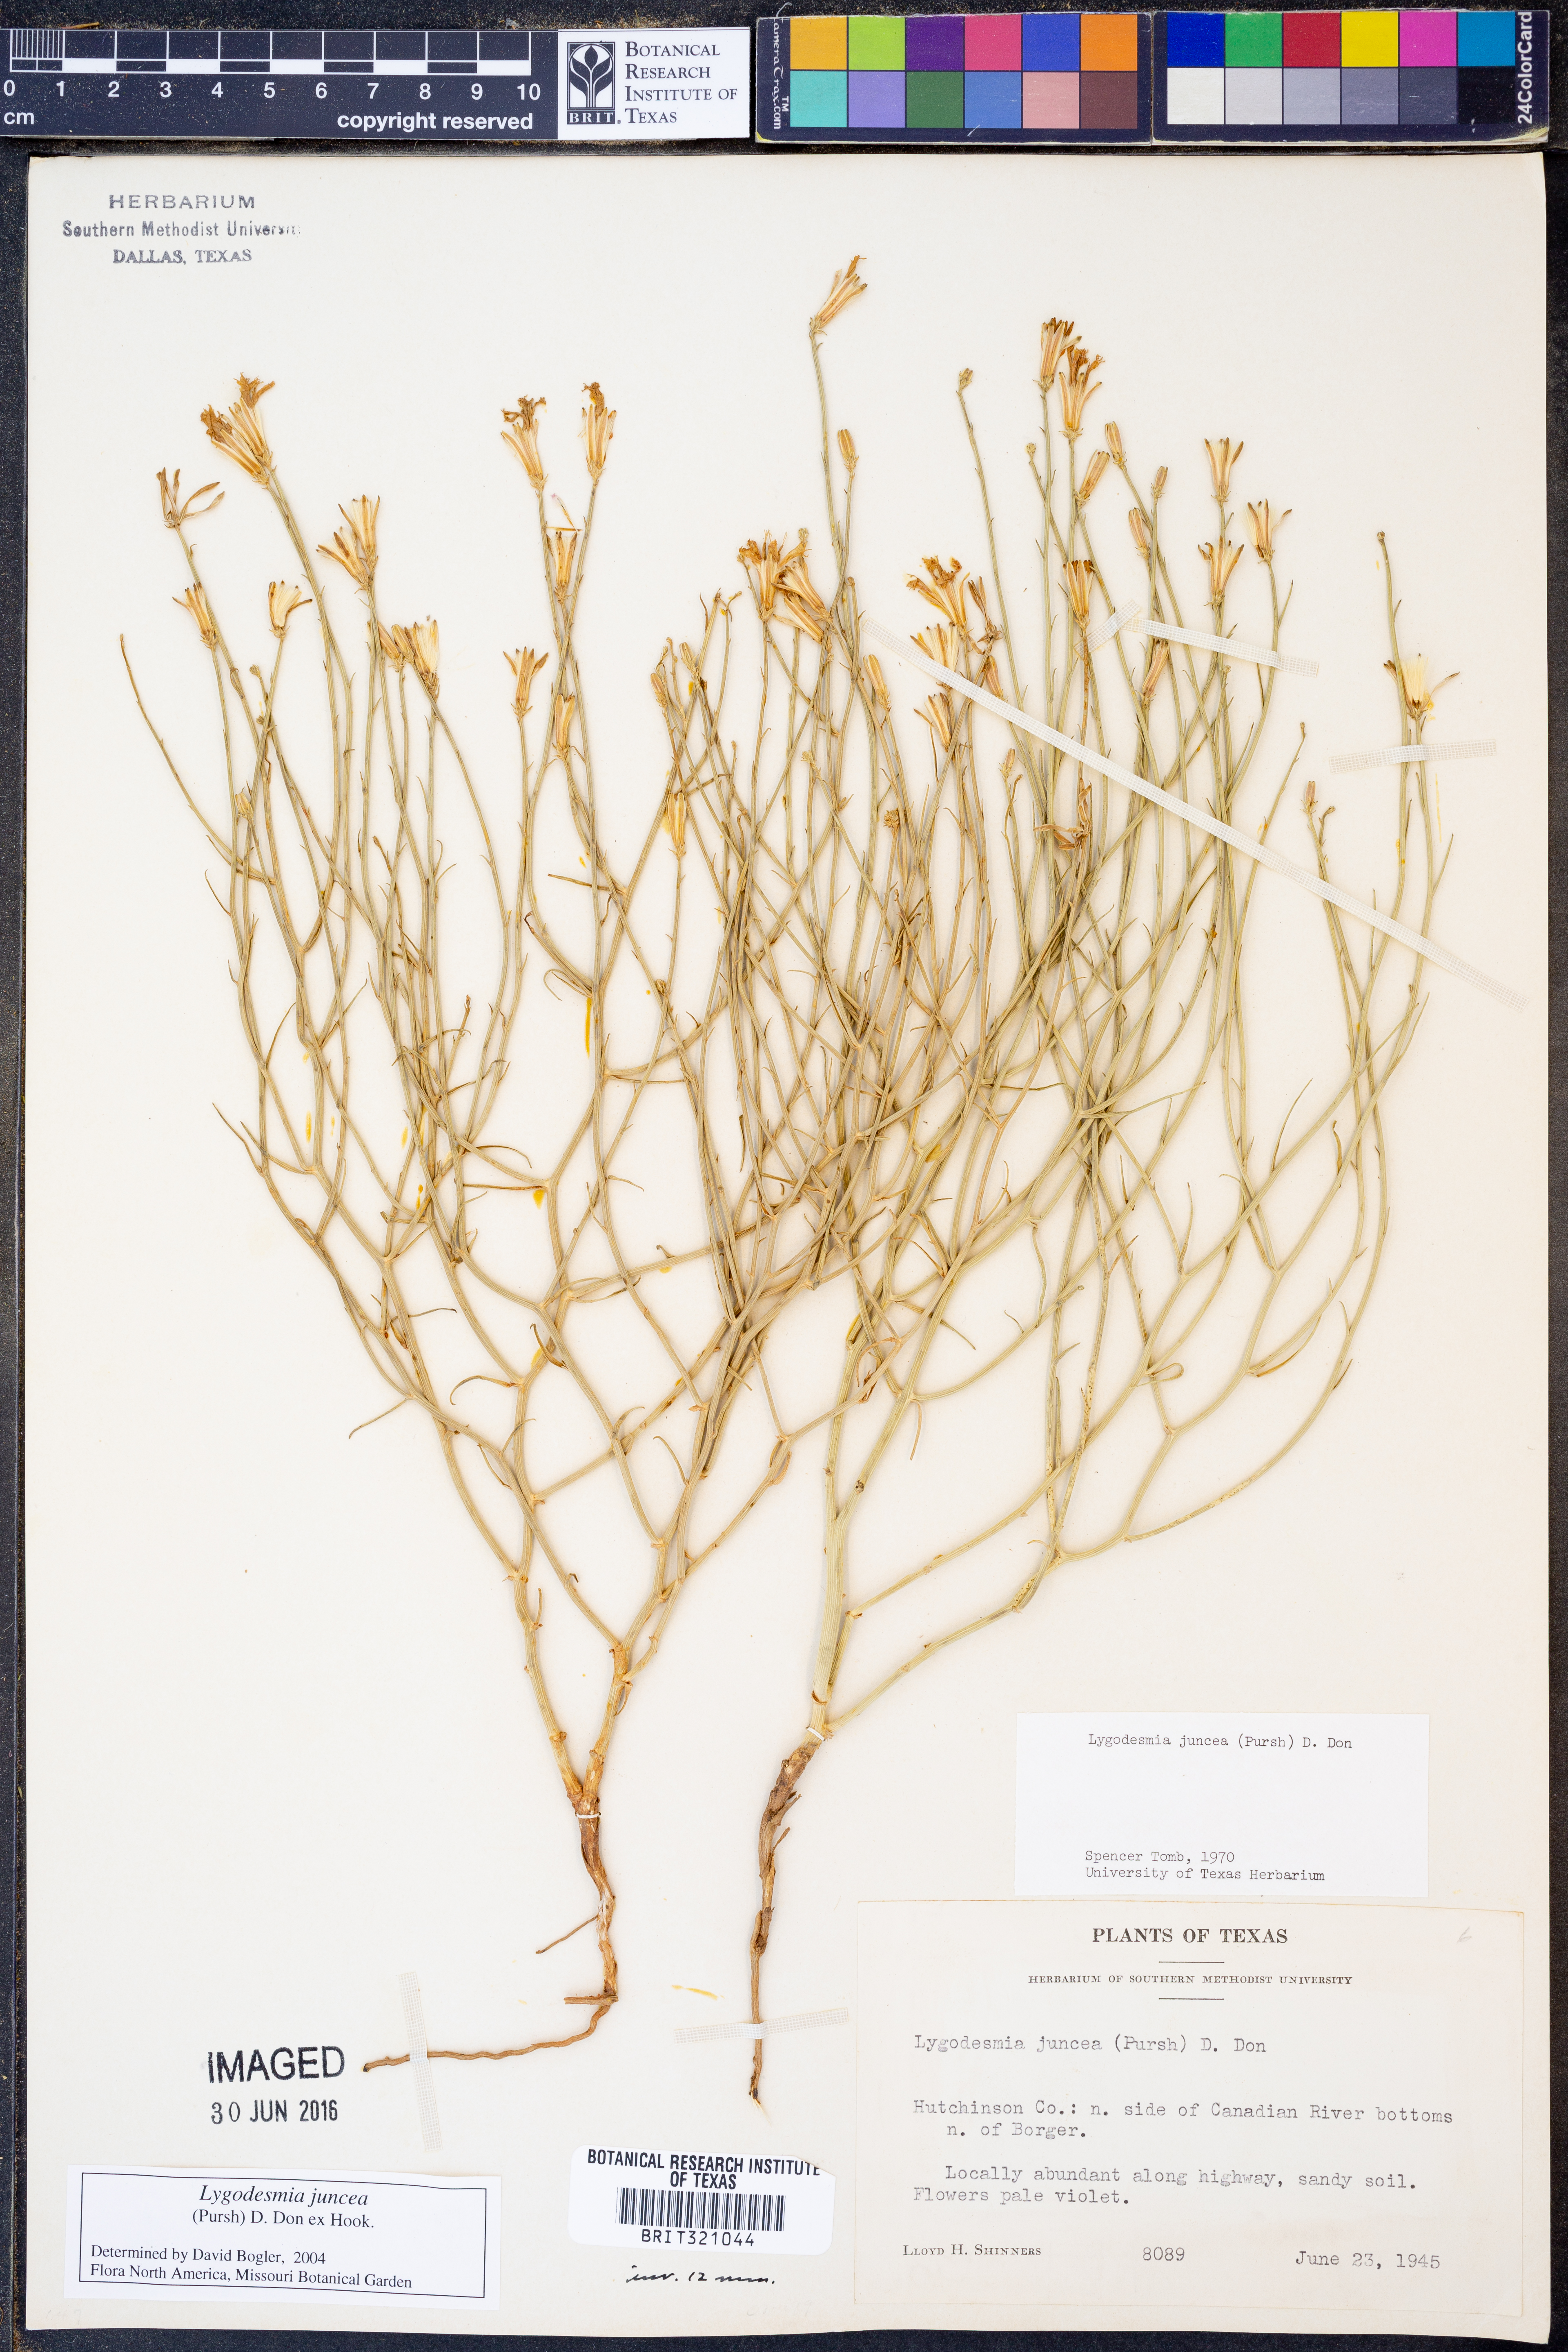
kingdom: Plantae
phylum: Tracheophyta
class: Magnoliopsida
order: Asterales
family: Asteraceae
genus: Lygodesmia
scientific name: Lygodesmia juncea
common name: Common skeletonweed
